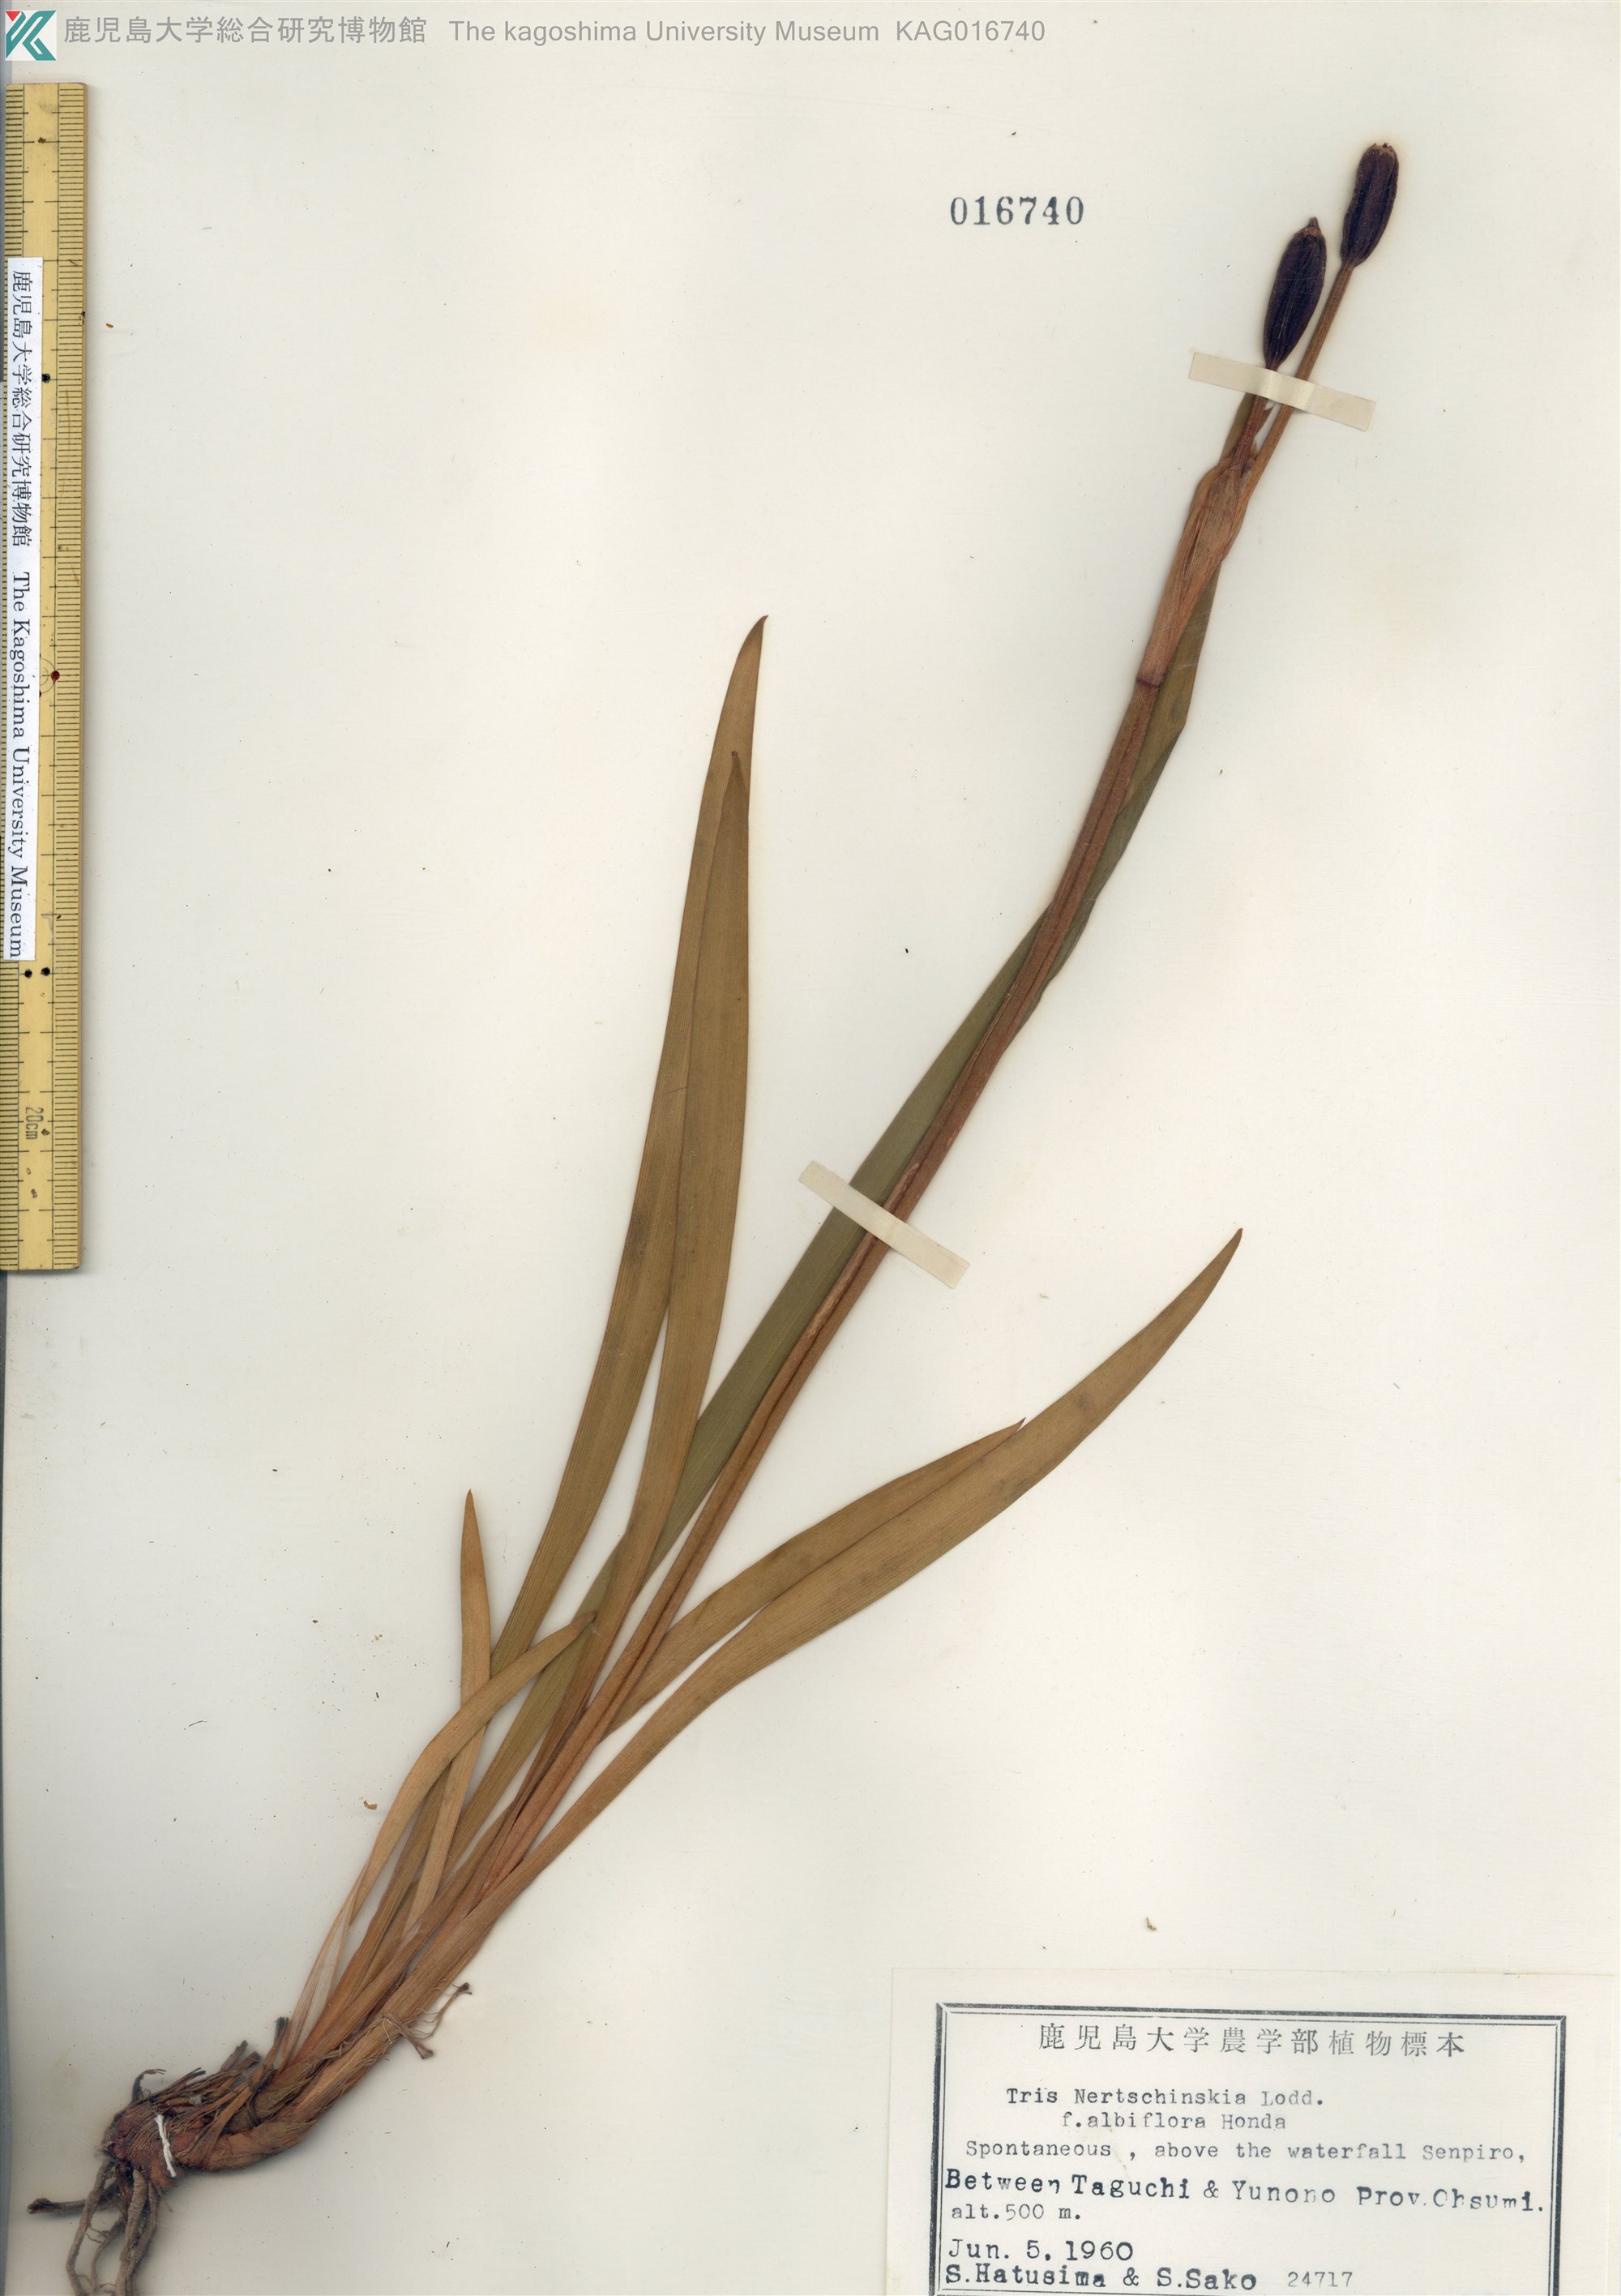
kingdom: Plantae
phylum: Tracheophyta
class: Liliopsida
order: Asparagales
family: Iridaceae
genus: Iris
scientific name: Iris sanguinea
